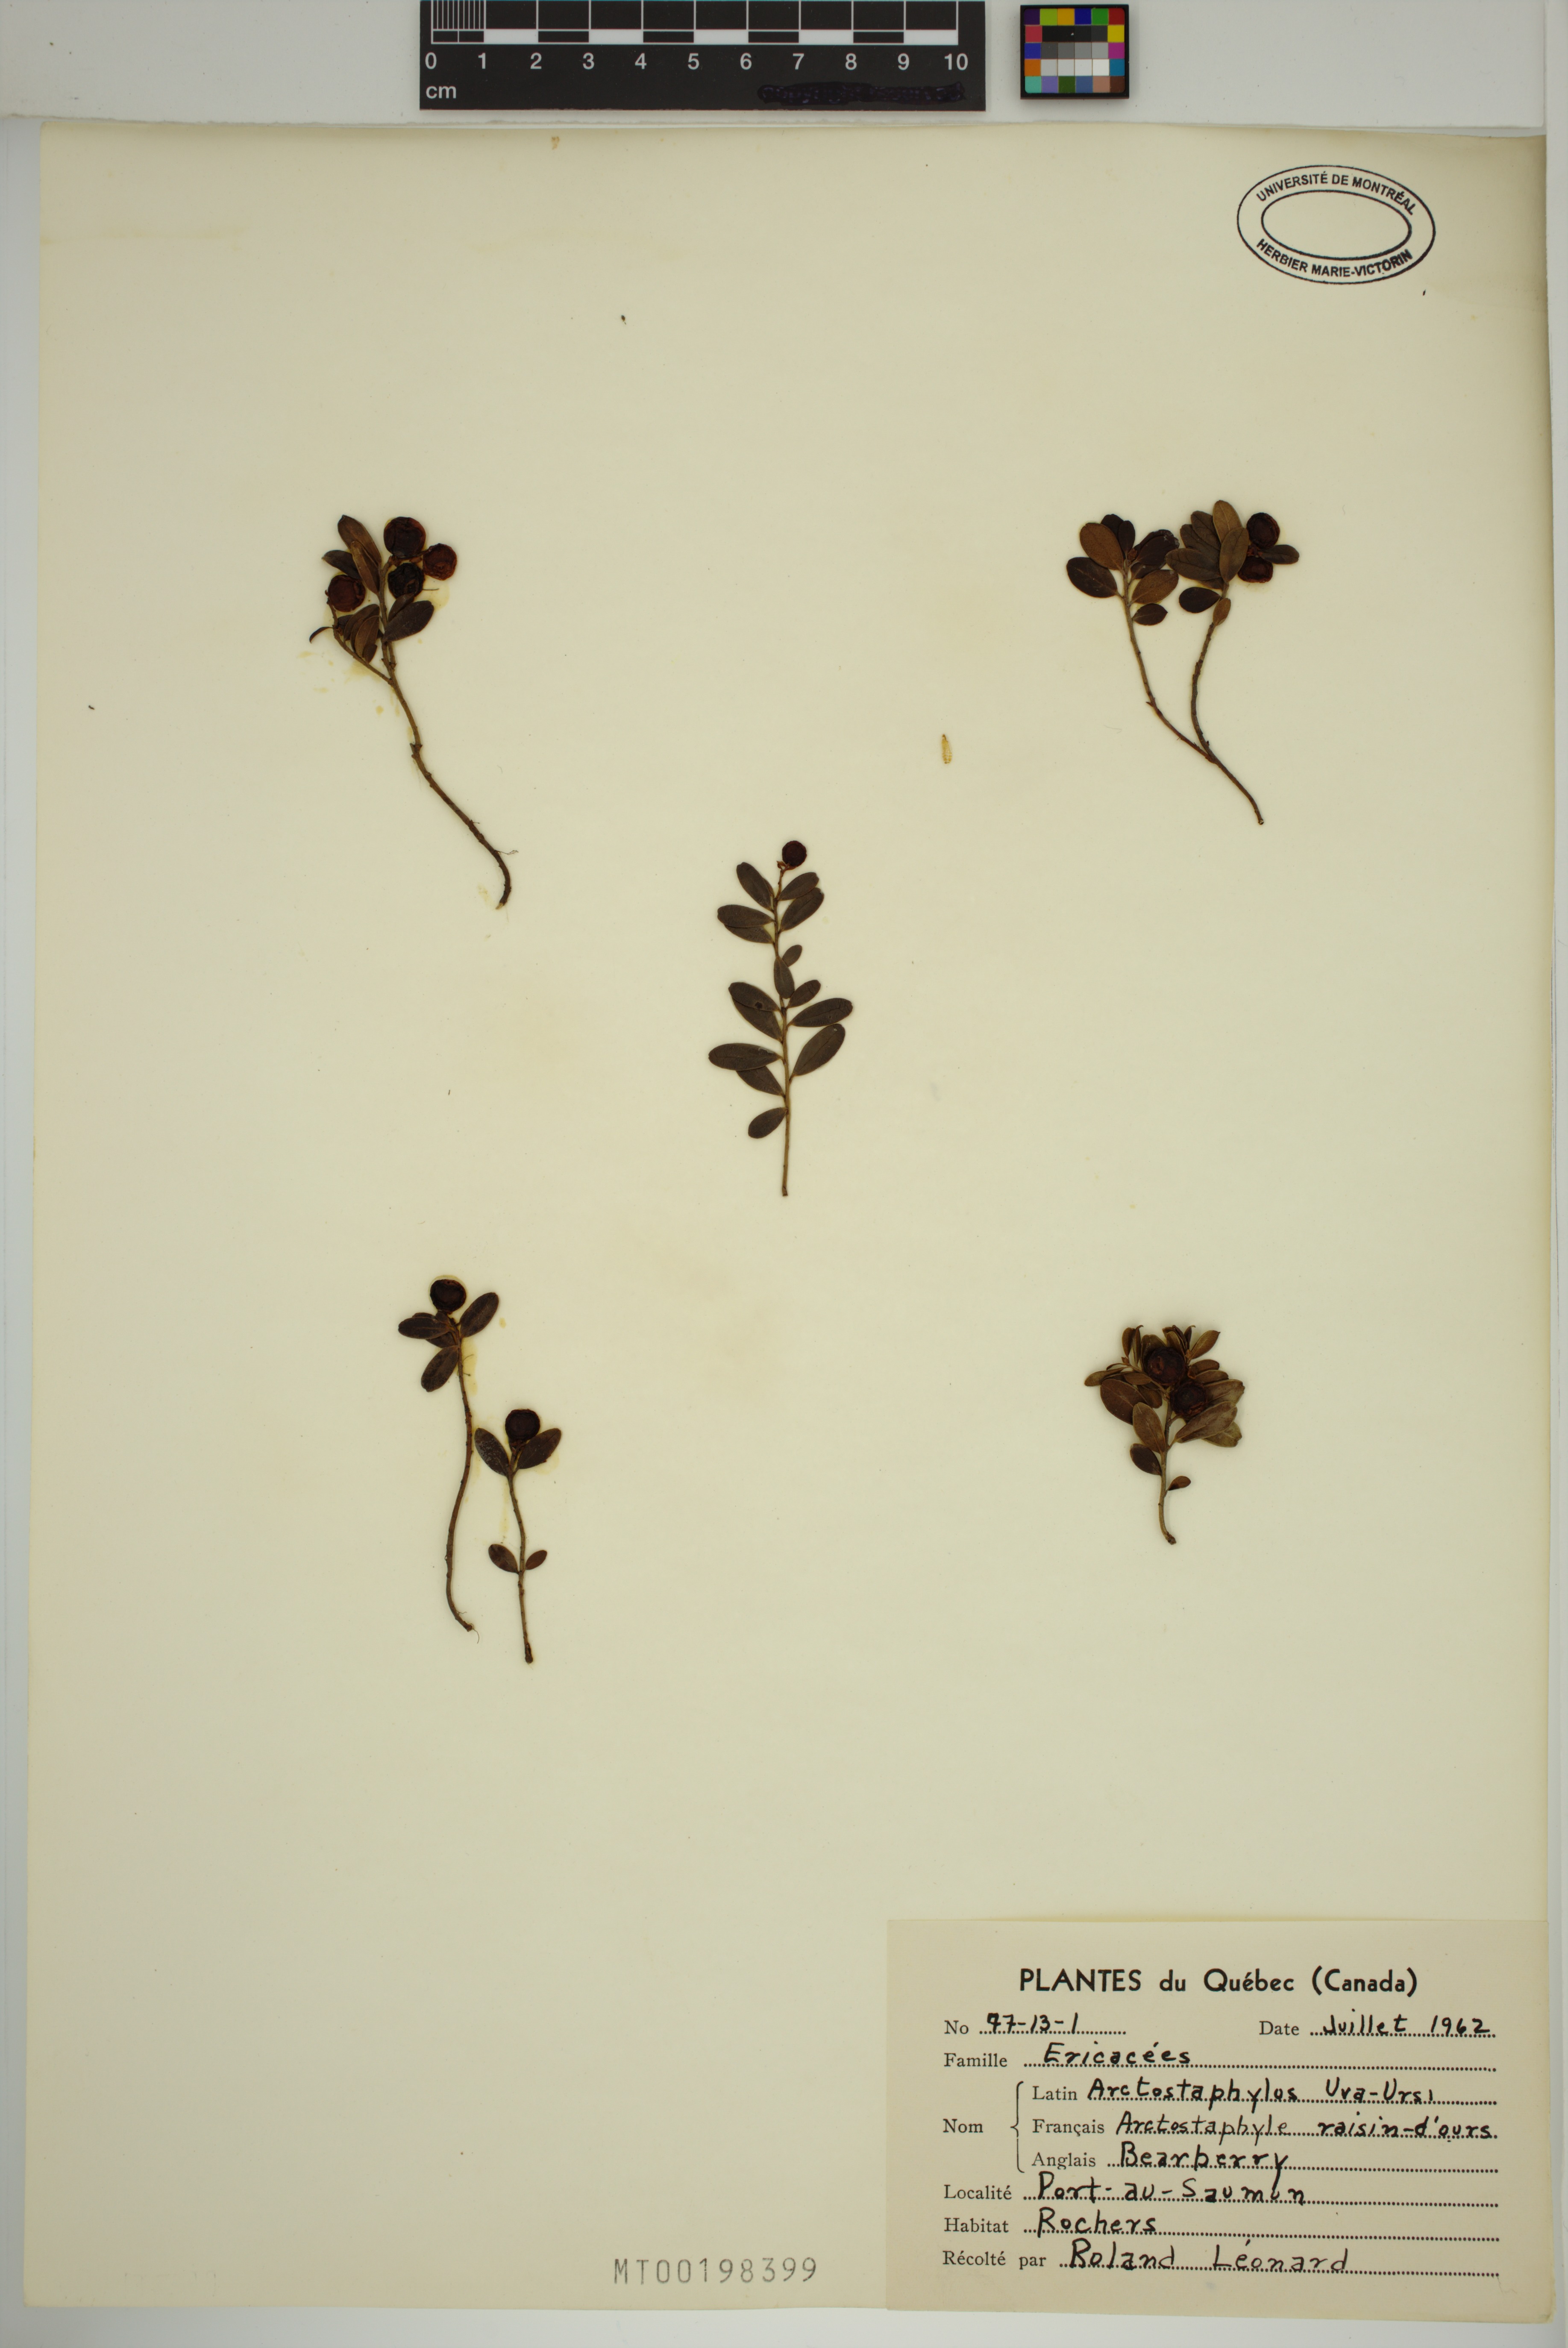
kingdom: Plantae
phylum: Tracheophyta
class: Magnoliopsida
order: Ericales
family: Ericaceae
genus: Arctostaphylos
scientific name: Arctostaphylos uva-ursi
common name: Bearberry
